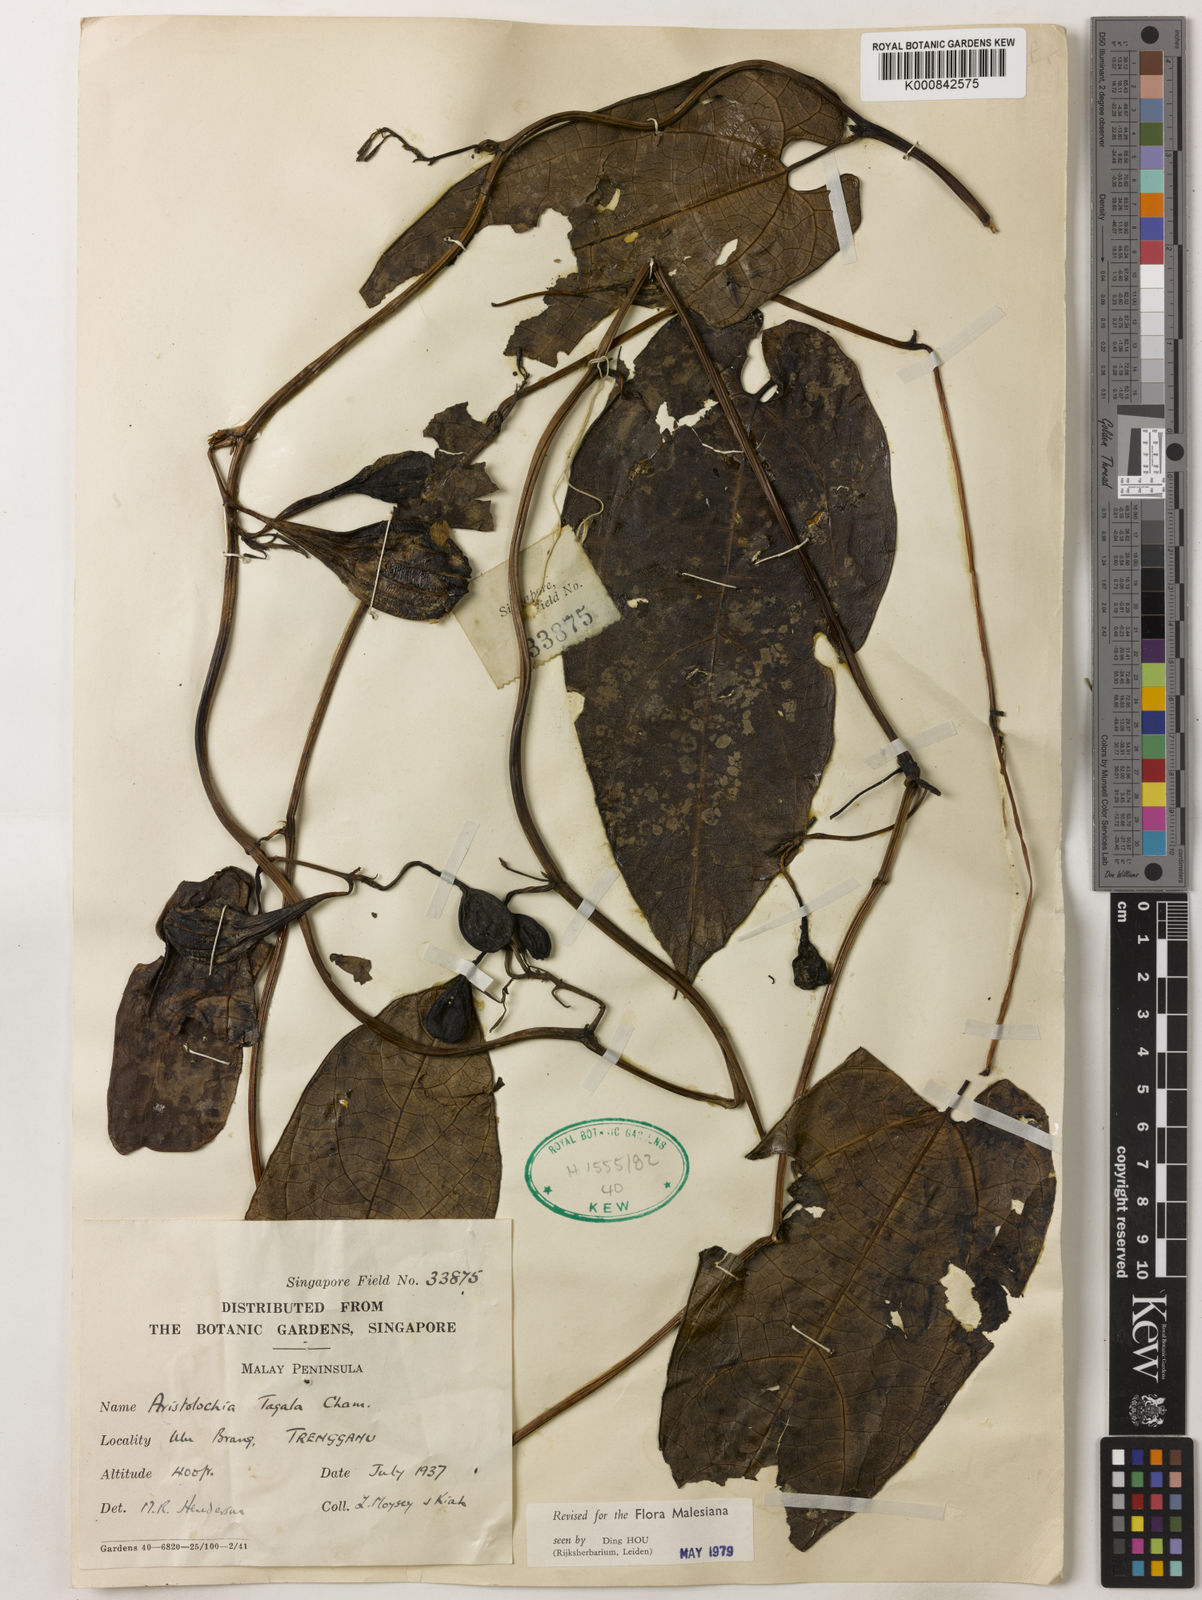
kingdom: Plantae
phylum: Tracheophyta
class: Magnoliopsida
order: Piperales
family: Aristolochiaceae
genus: Aristolochia
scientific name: Aristolochia acuminata
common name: Indian birthwort
